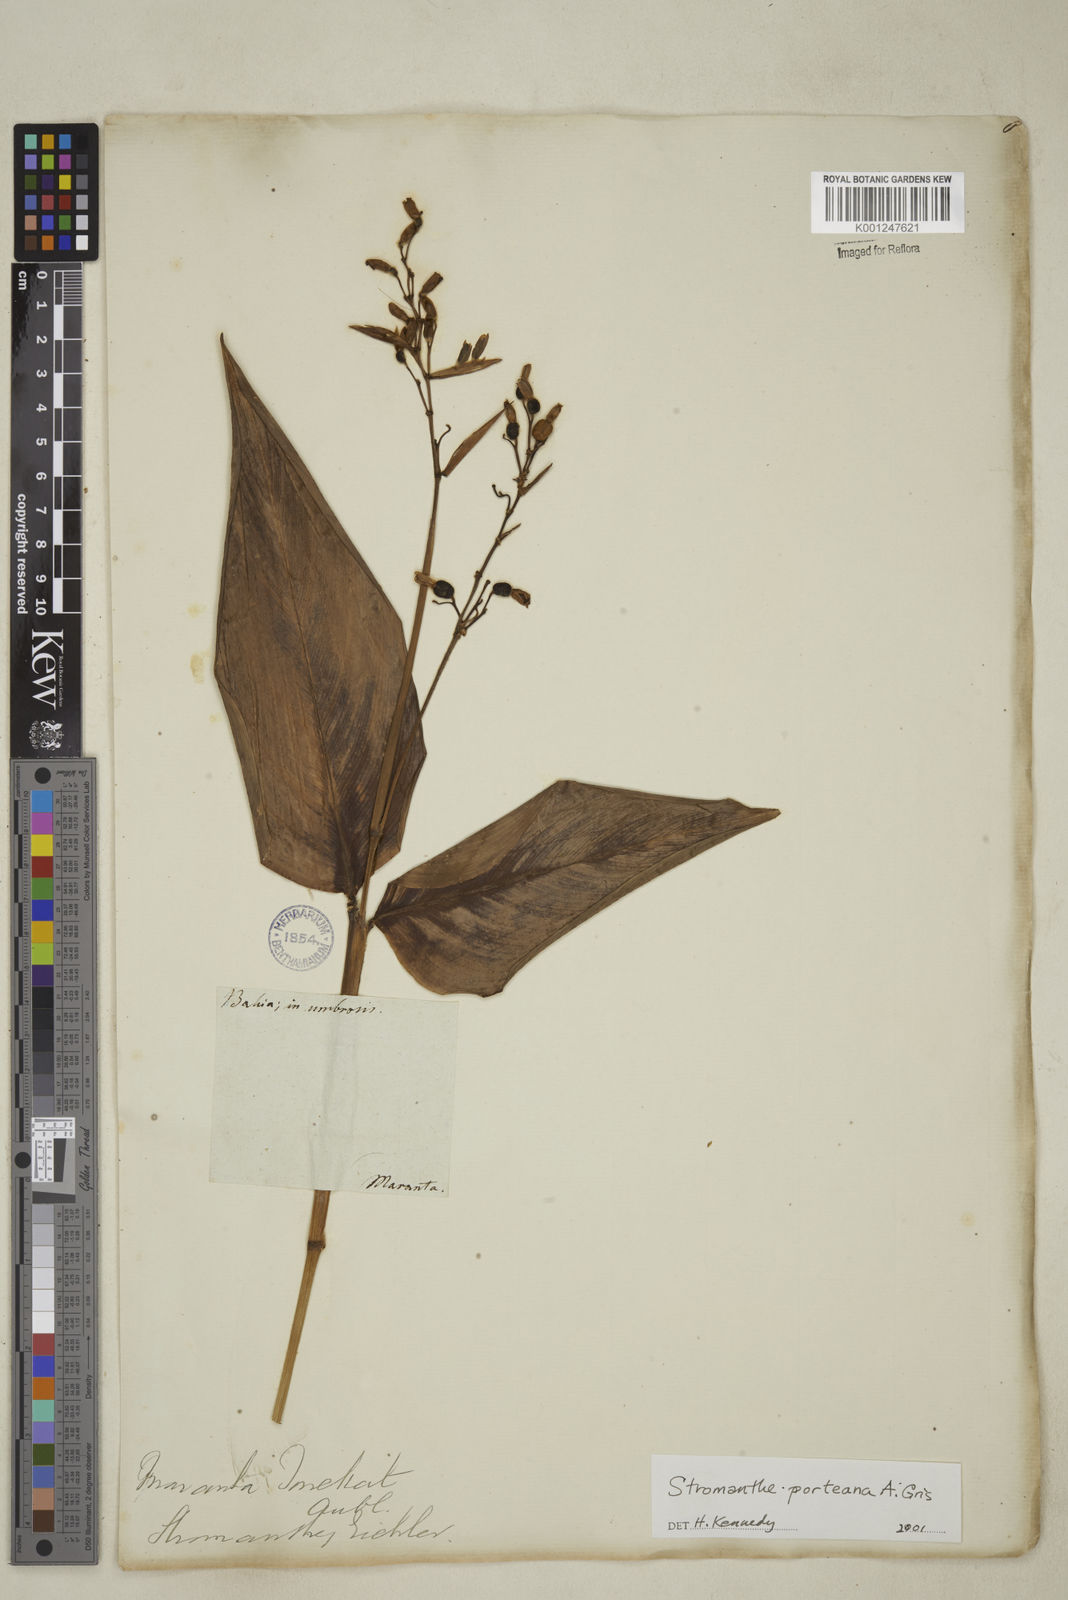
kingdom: Plantae
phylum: Tracheophyta
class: Liliopsida
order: Zingiberales
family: Marantaceae
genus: Stromanthe
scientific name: Stromanthe porteana
